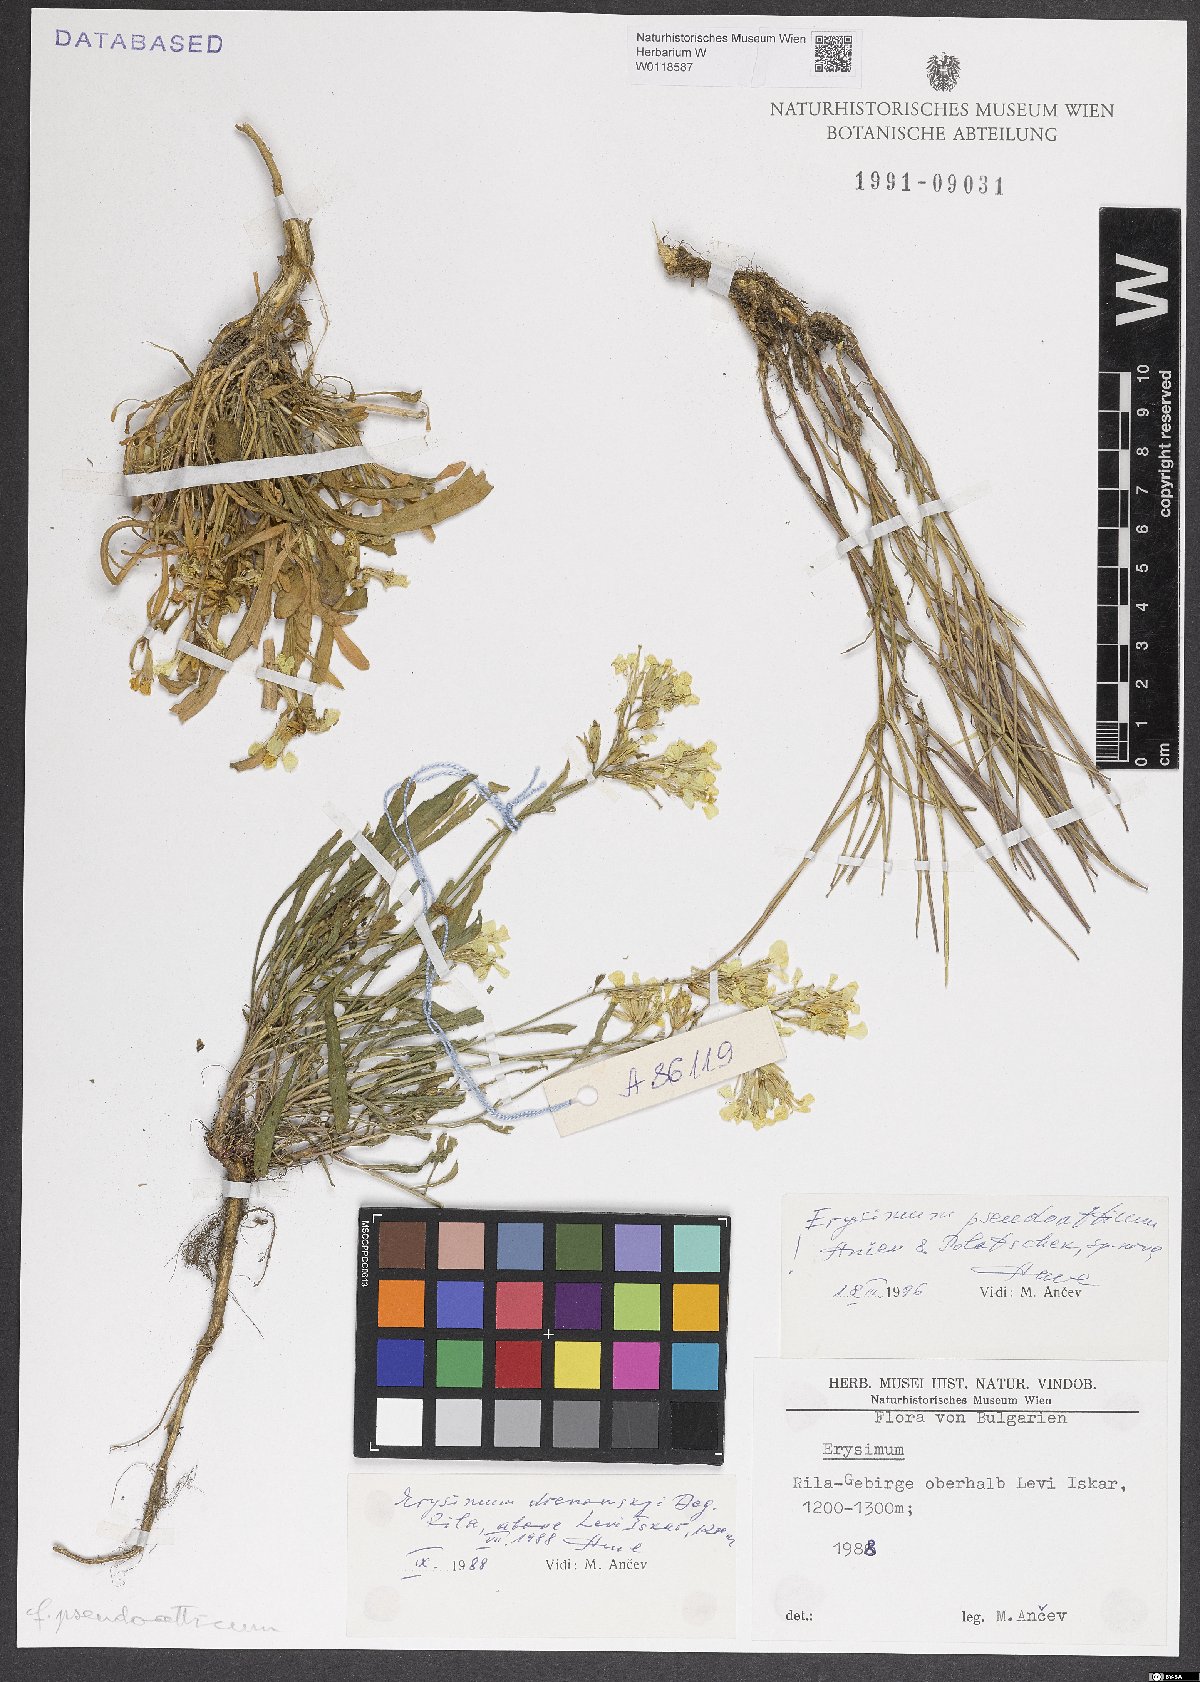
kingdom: Plantae
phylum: Tracheophyta
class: Magnoliopsida
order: Brassicales
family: Brassicaceae
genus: Erysimum
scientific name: Erysimum pseudoatticum
